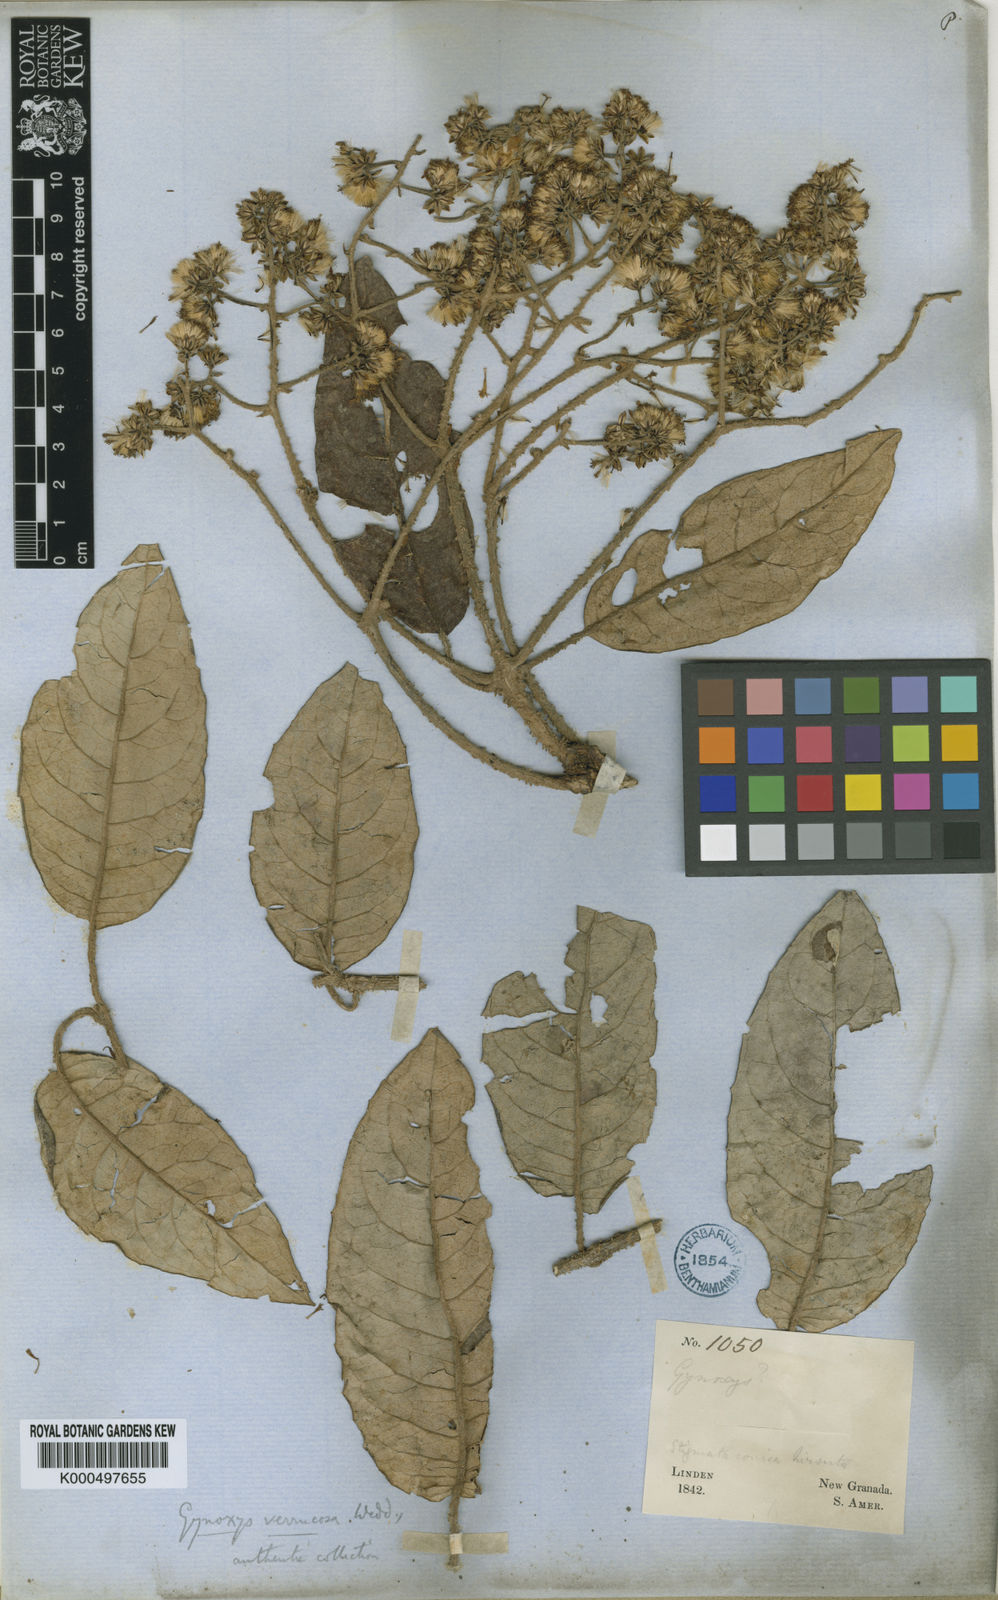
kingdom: Plantae
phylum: Tracheophyta
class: Magnoliopsida
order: Asterales
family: Asteraceae
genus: Aequatorium
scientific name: Aequatorium
